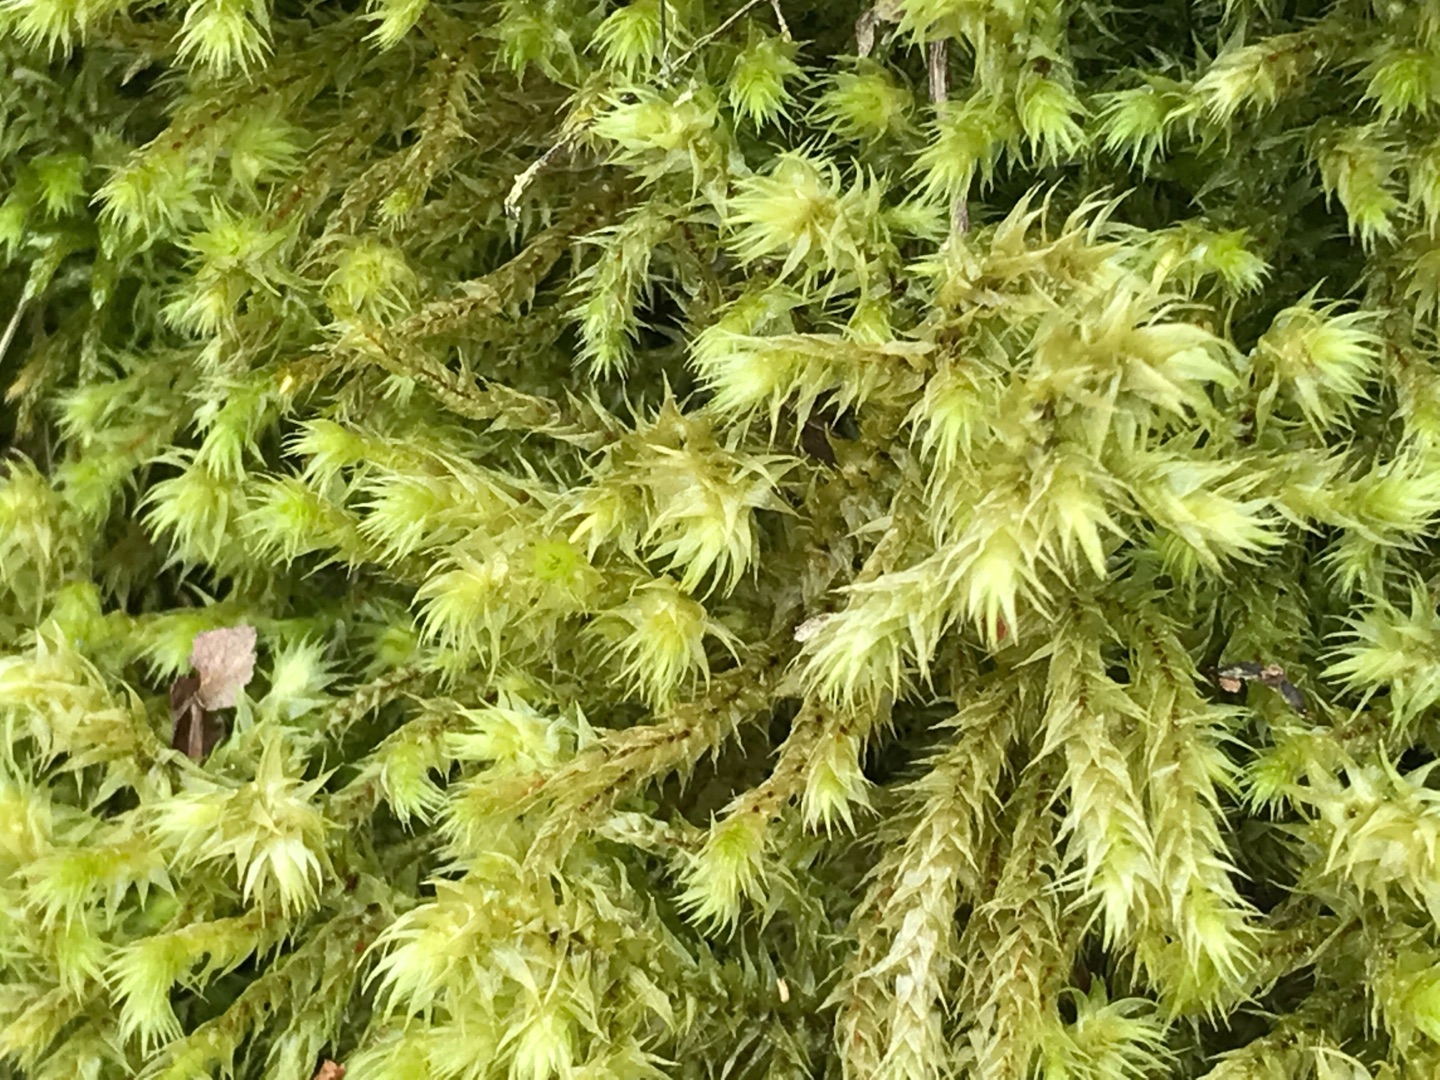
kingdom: Plantae
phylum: Bryophyta
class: Bryopsida
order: Hypnales
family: Hylocomiaceae
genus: Hylocomiadelphus
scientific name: Hylocomiadelphus triquetrus
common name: Stor kransemos
